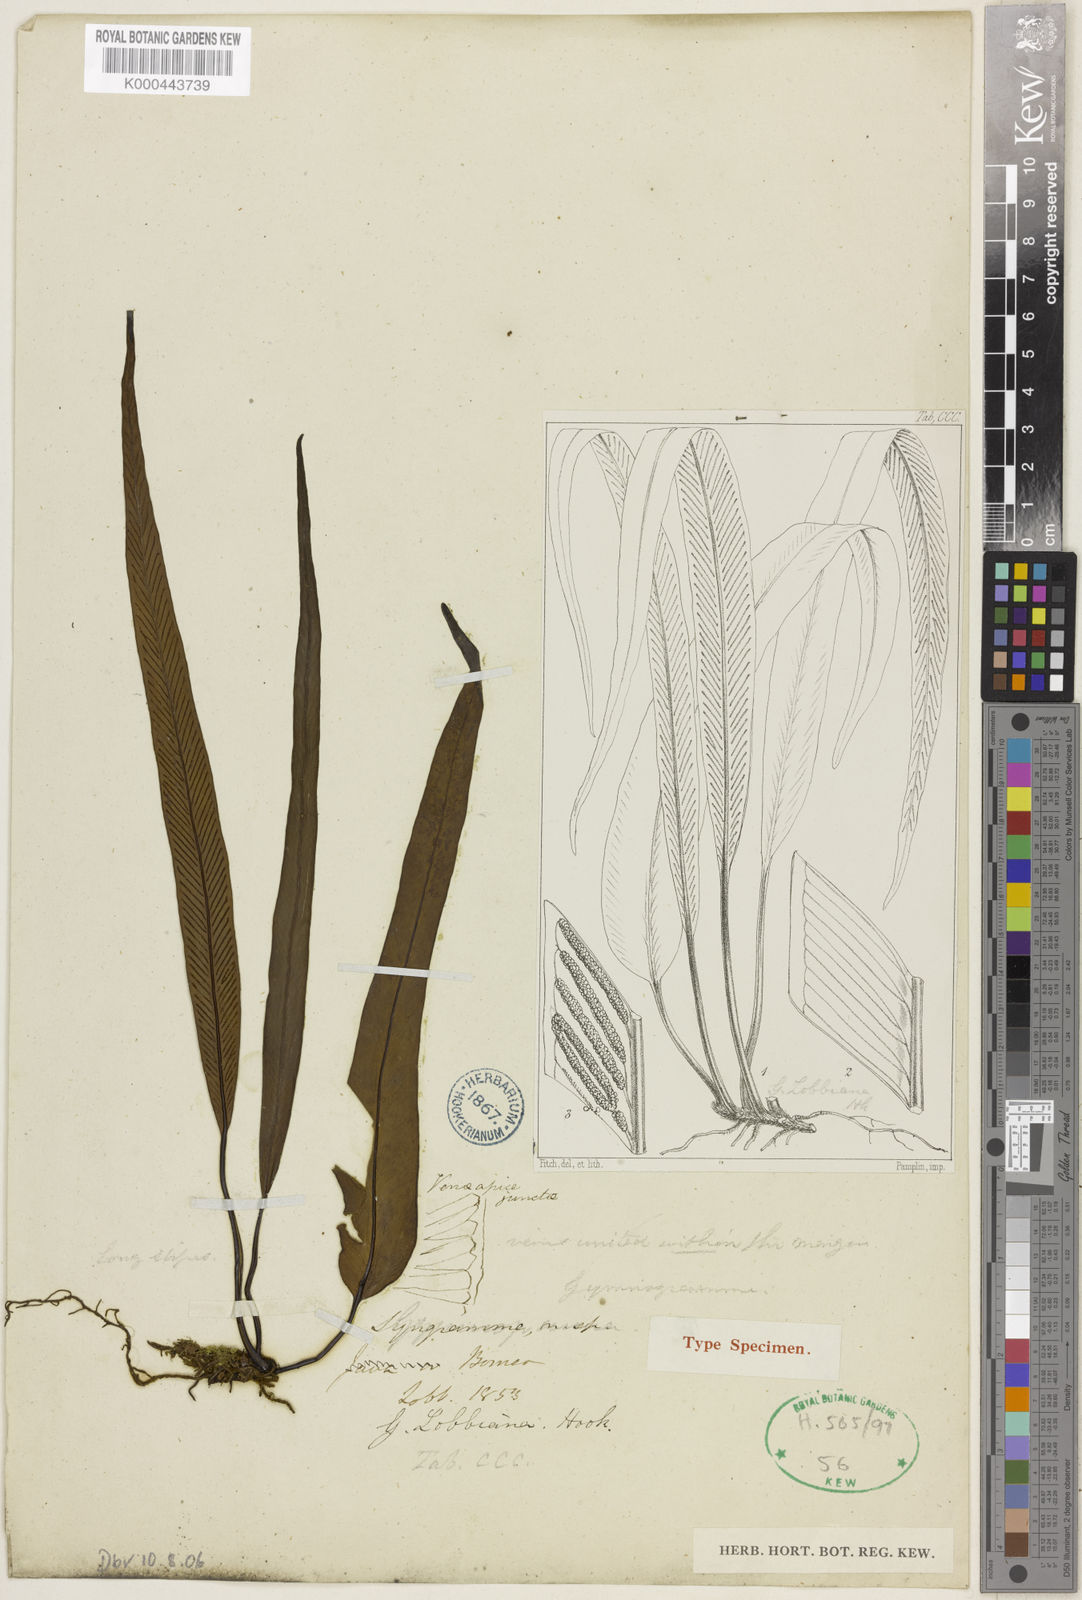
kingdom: Plantae
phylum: Tracheophyta
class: Polypodiopsida
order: Polypodiales
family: Pteridaceae
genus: Syngramma
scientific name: Syngramma lobbiana
